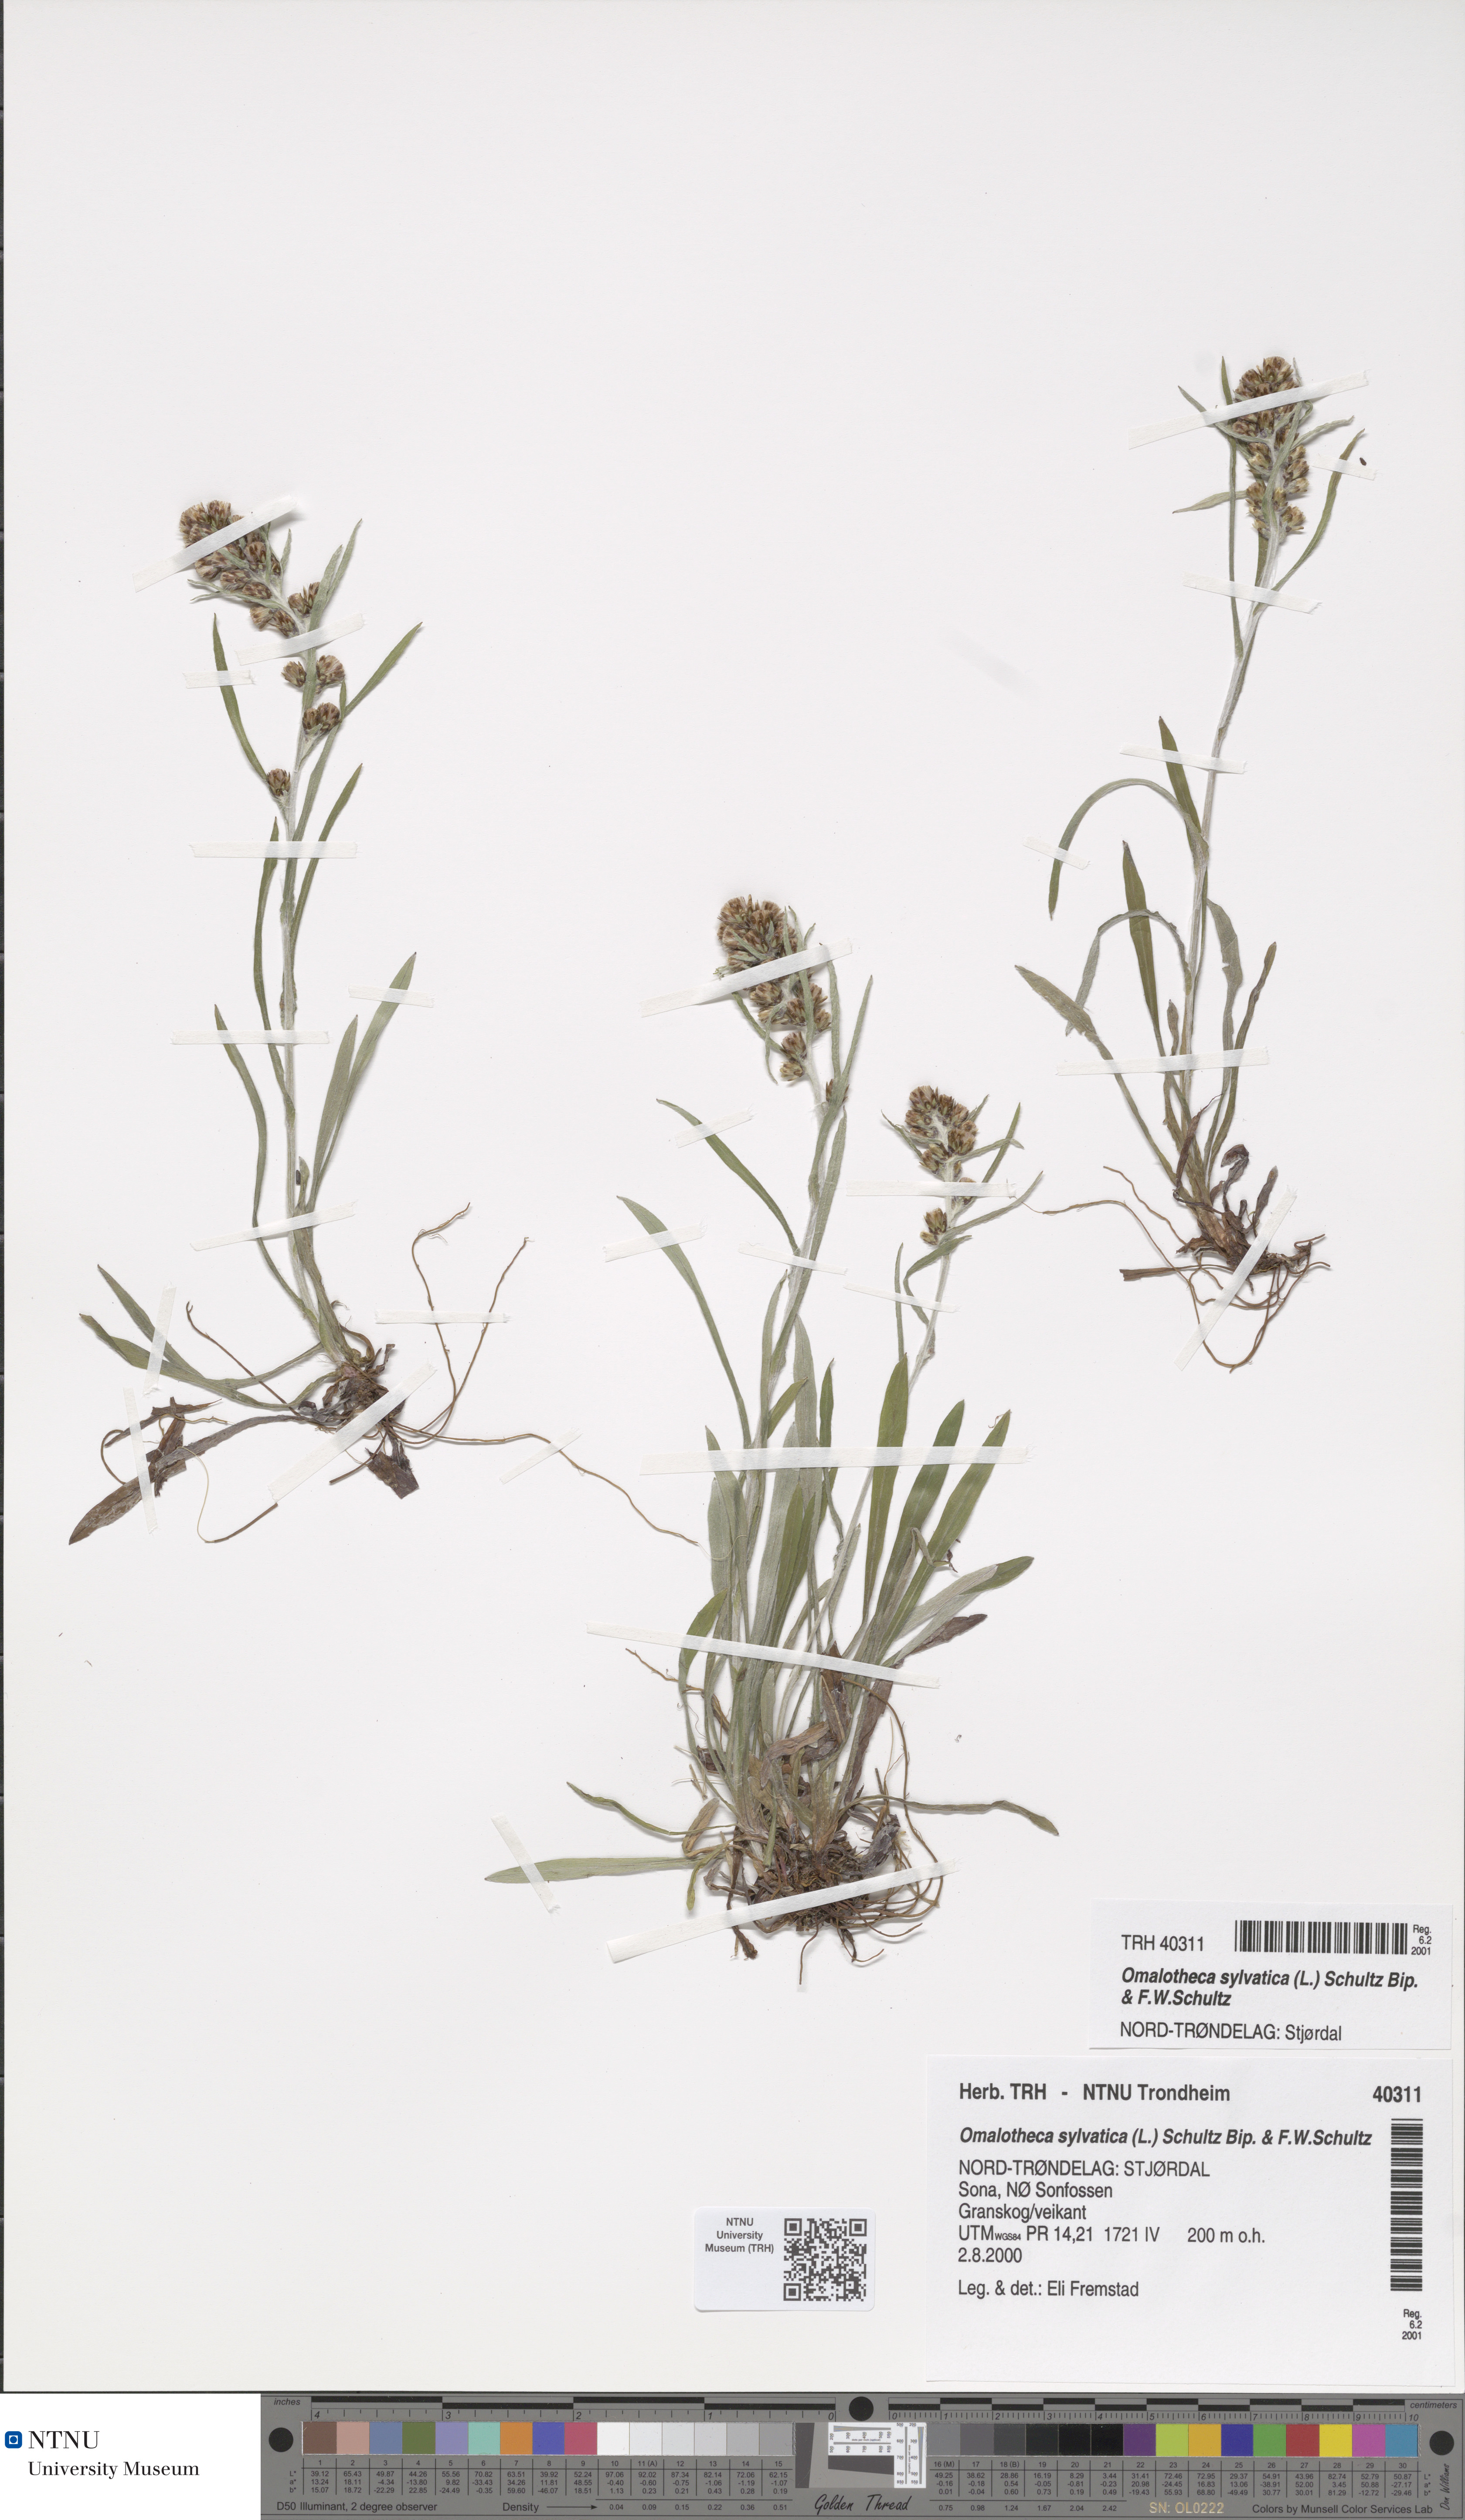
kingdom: Plantae
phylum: Tracheophyta
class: Magnoliopsida
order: Asterales
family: Asteraceae
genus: Omalotheca
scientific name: Omalotheca sylvatica
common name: Heath cudweed
